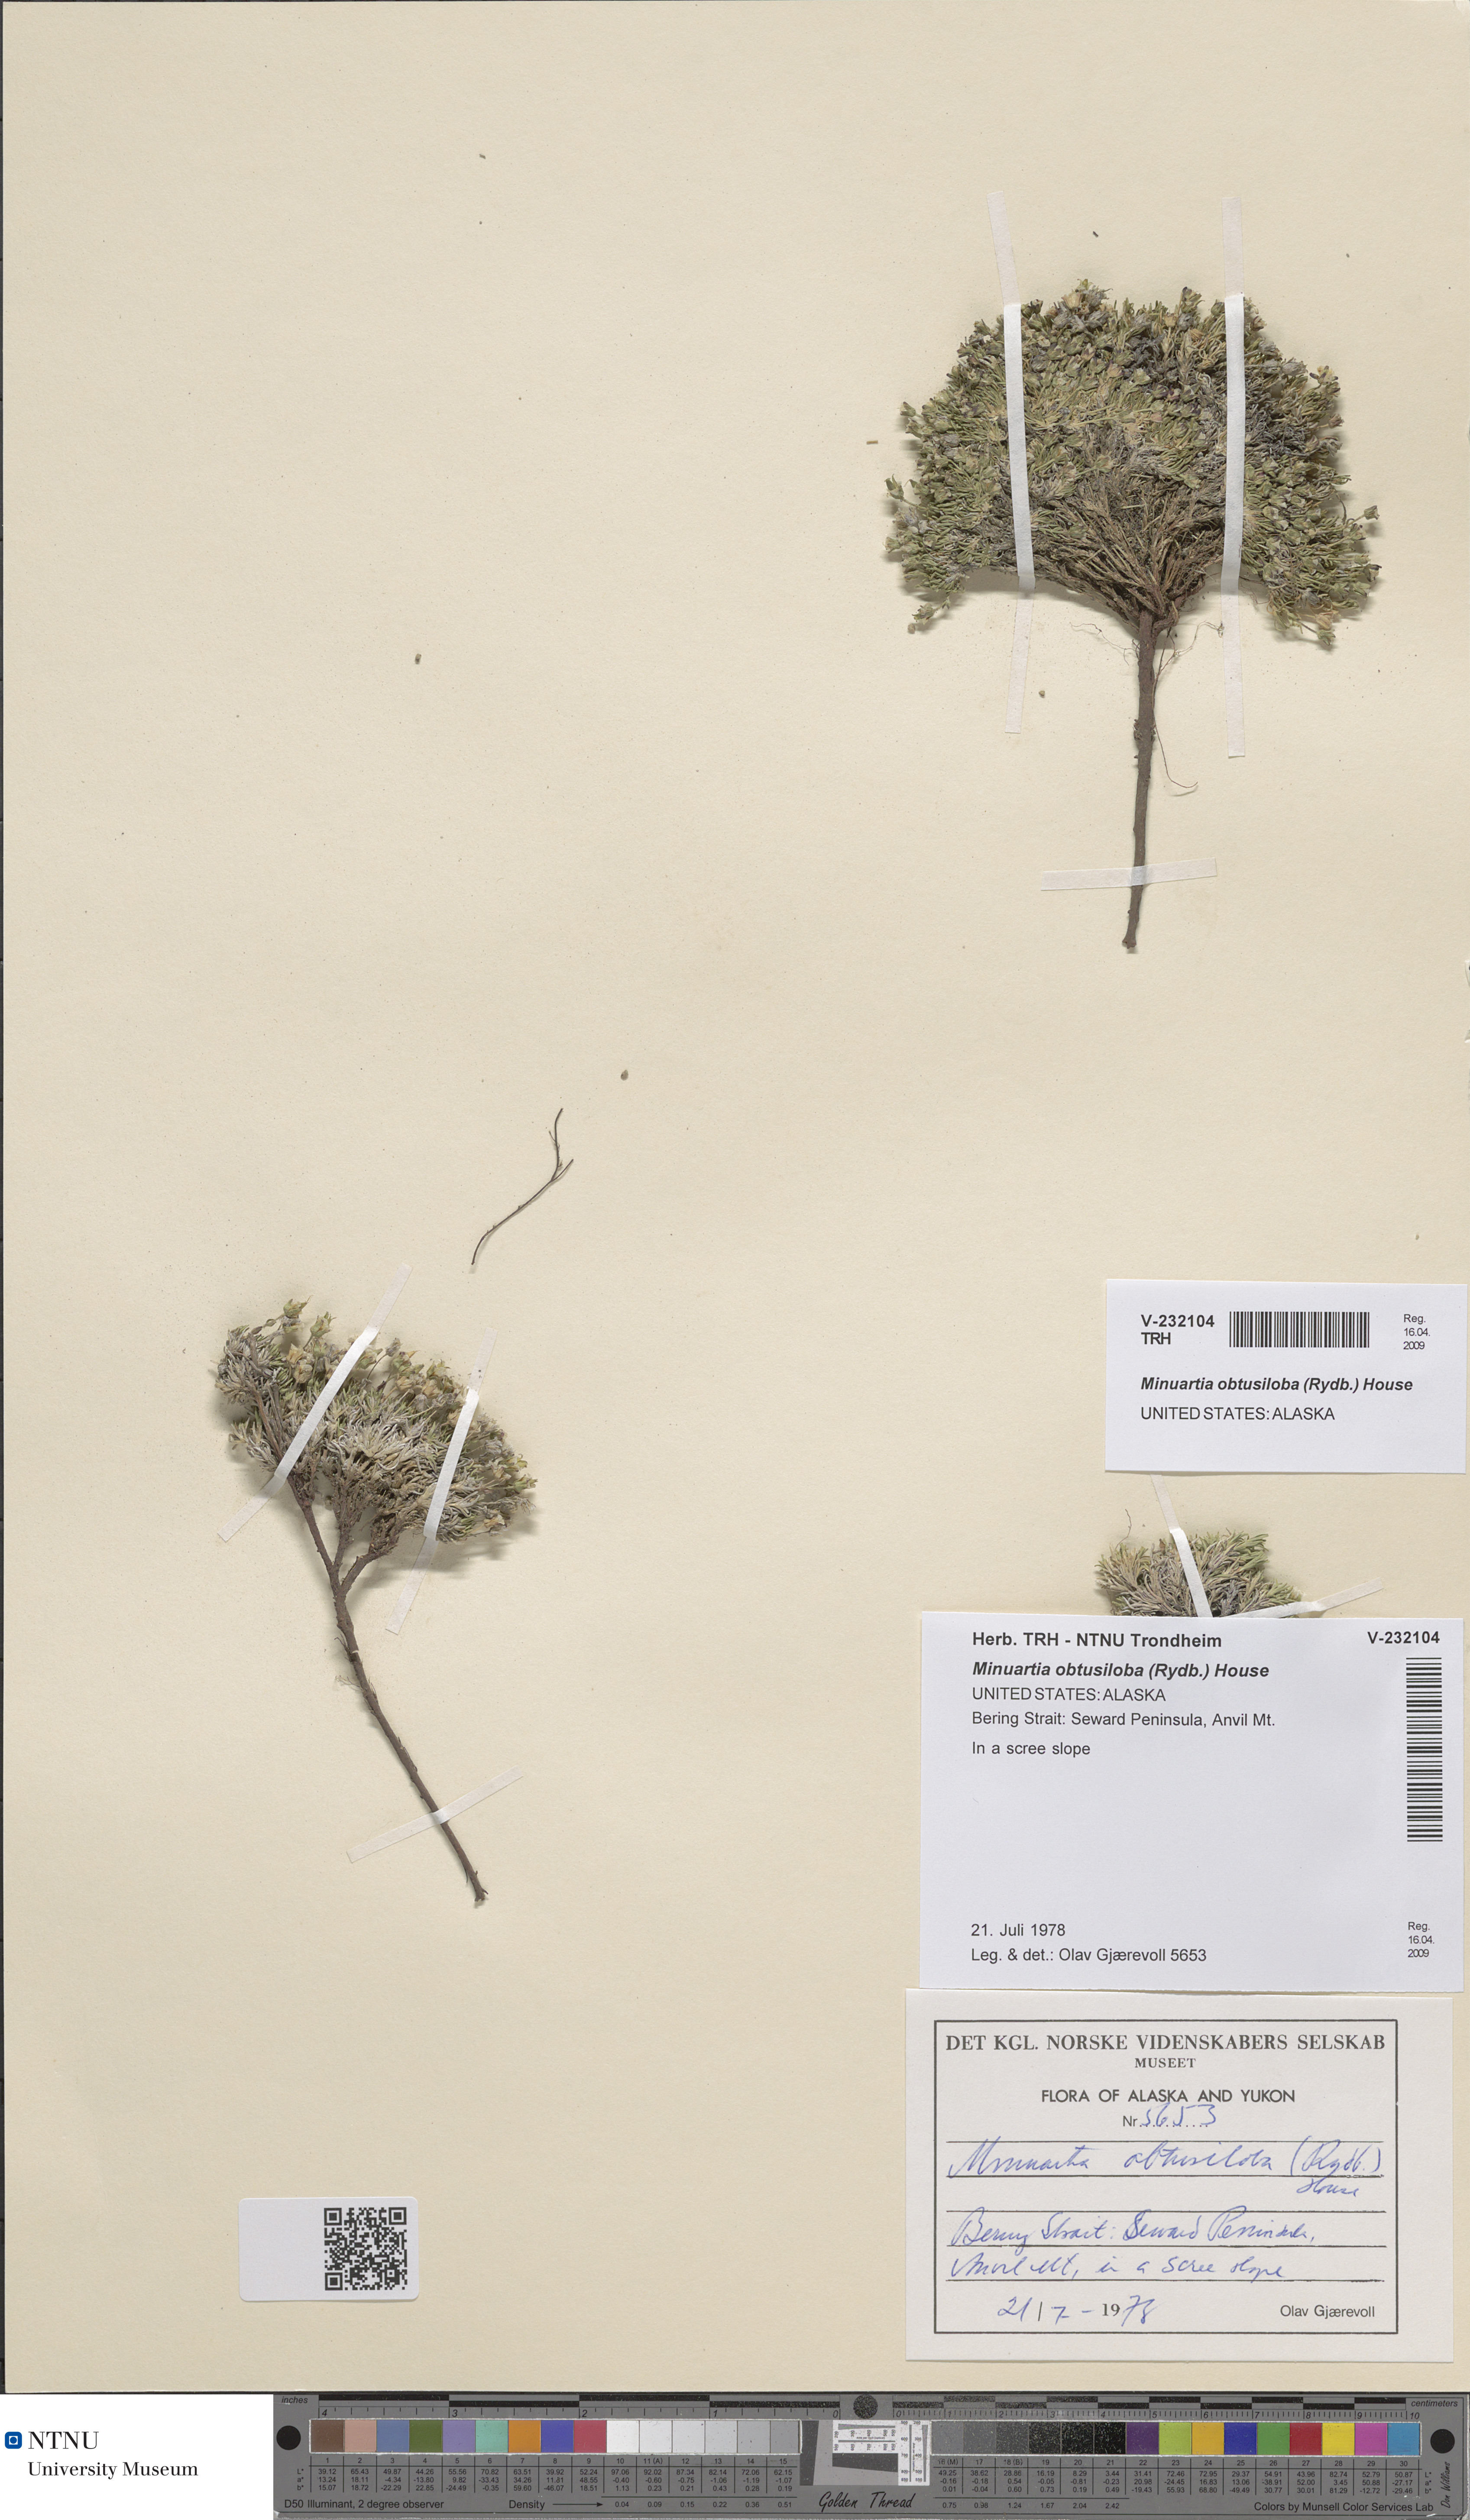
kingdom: Plantae
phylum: Tracheophyta
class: Magnoliopsida
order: Caryophyllales
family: Caryophyllaceae
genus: Cherleria
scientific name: Cherleria obtusiloba
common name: Alpine stitchwort
